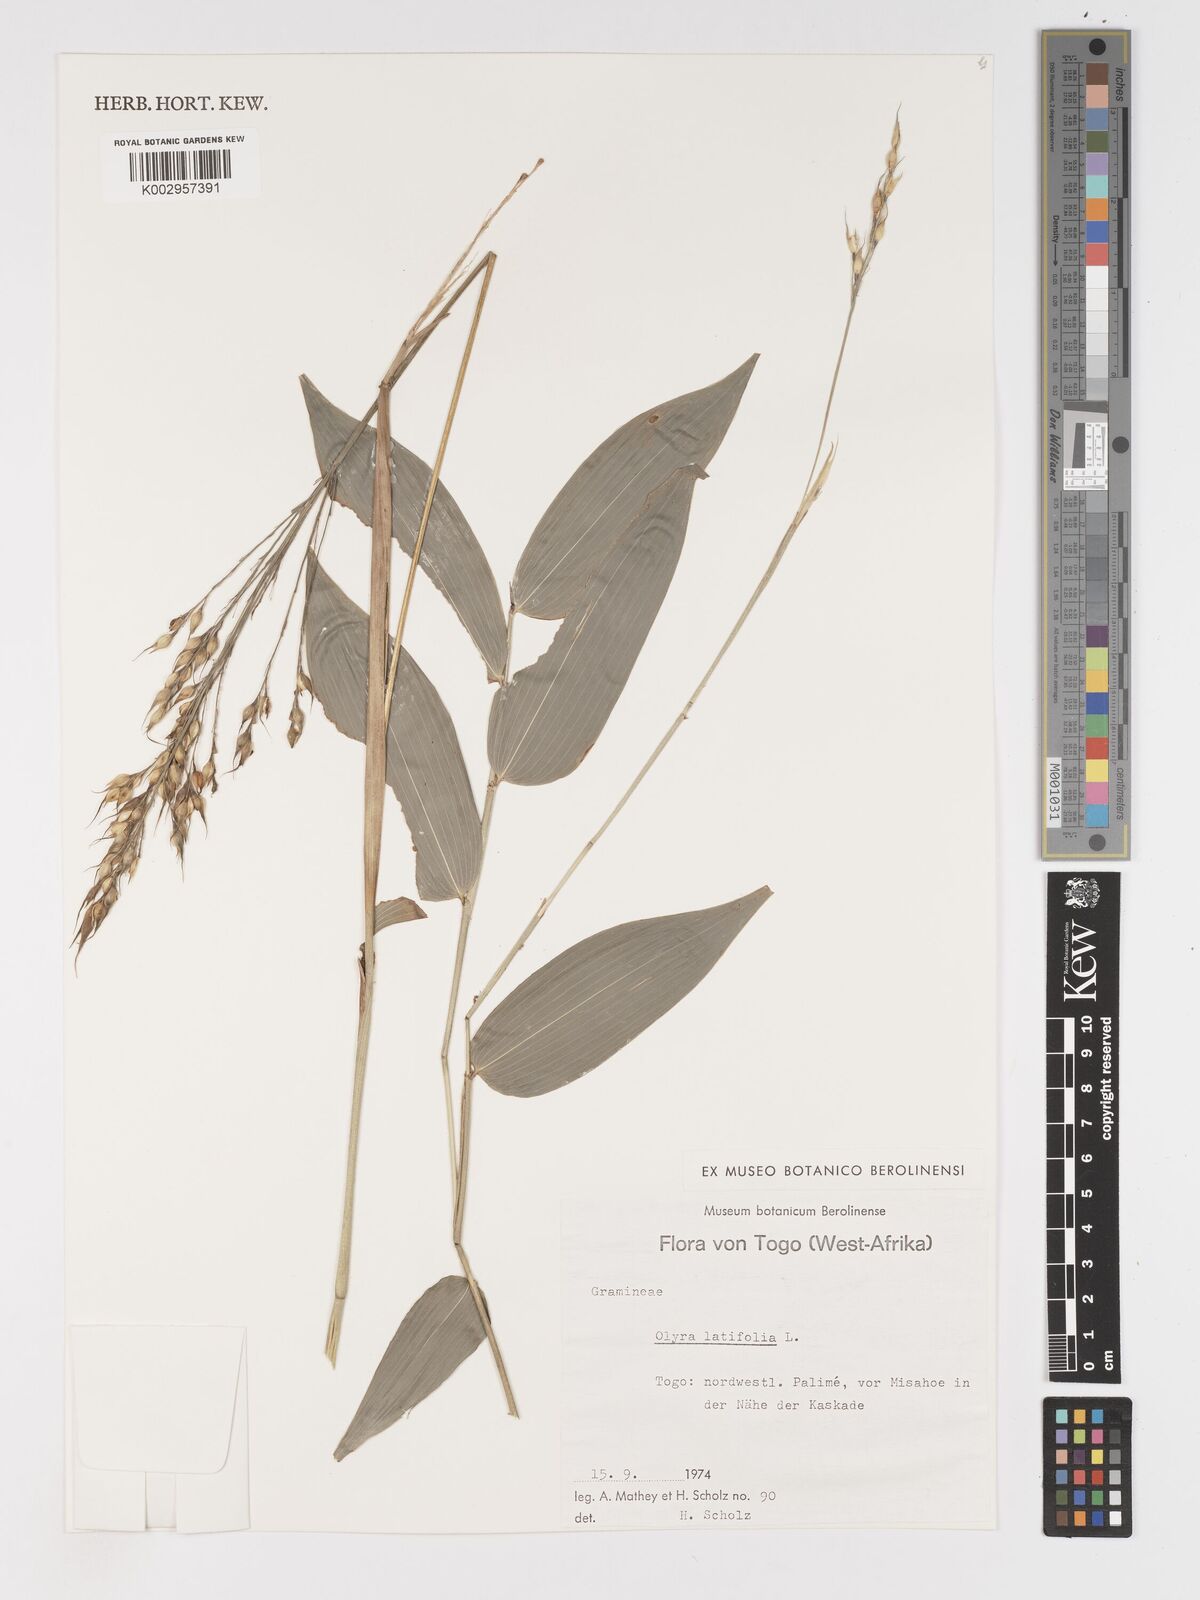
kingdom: Plantae
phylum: Tracheophyta
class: Liliopsida
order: Poales
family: Poaceae
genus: Olyra
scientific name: Olyra latifolia
